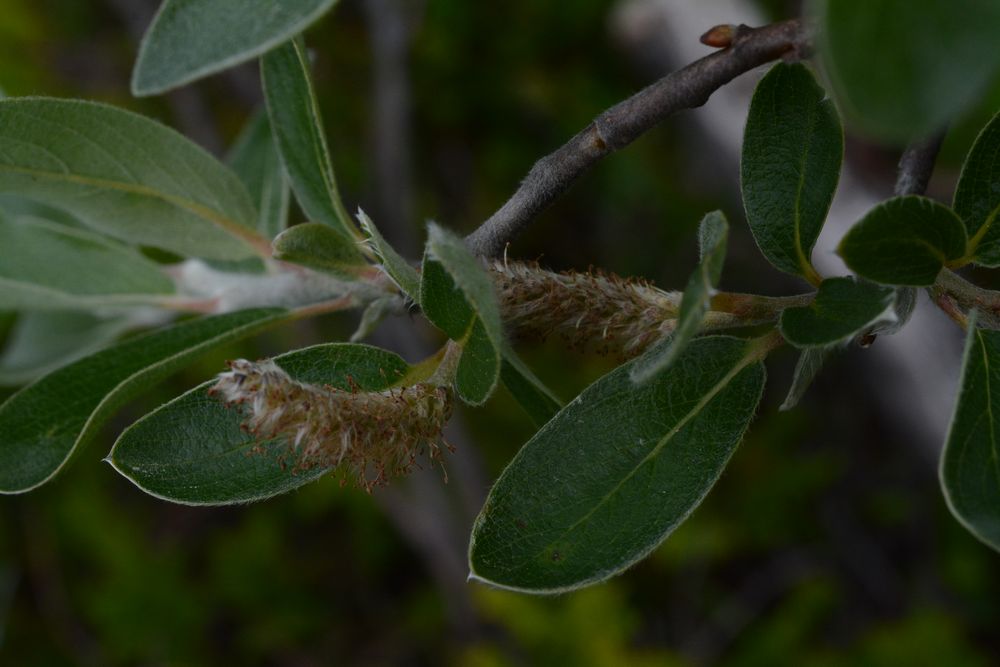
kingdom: Plantae
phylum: Tracheophyta
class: Magnoliopsida
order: Malpighiales
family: Salicaceae
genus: Salix
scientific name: Salix
